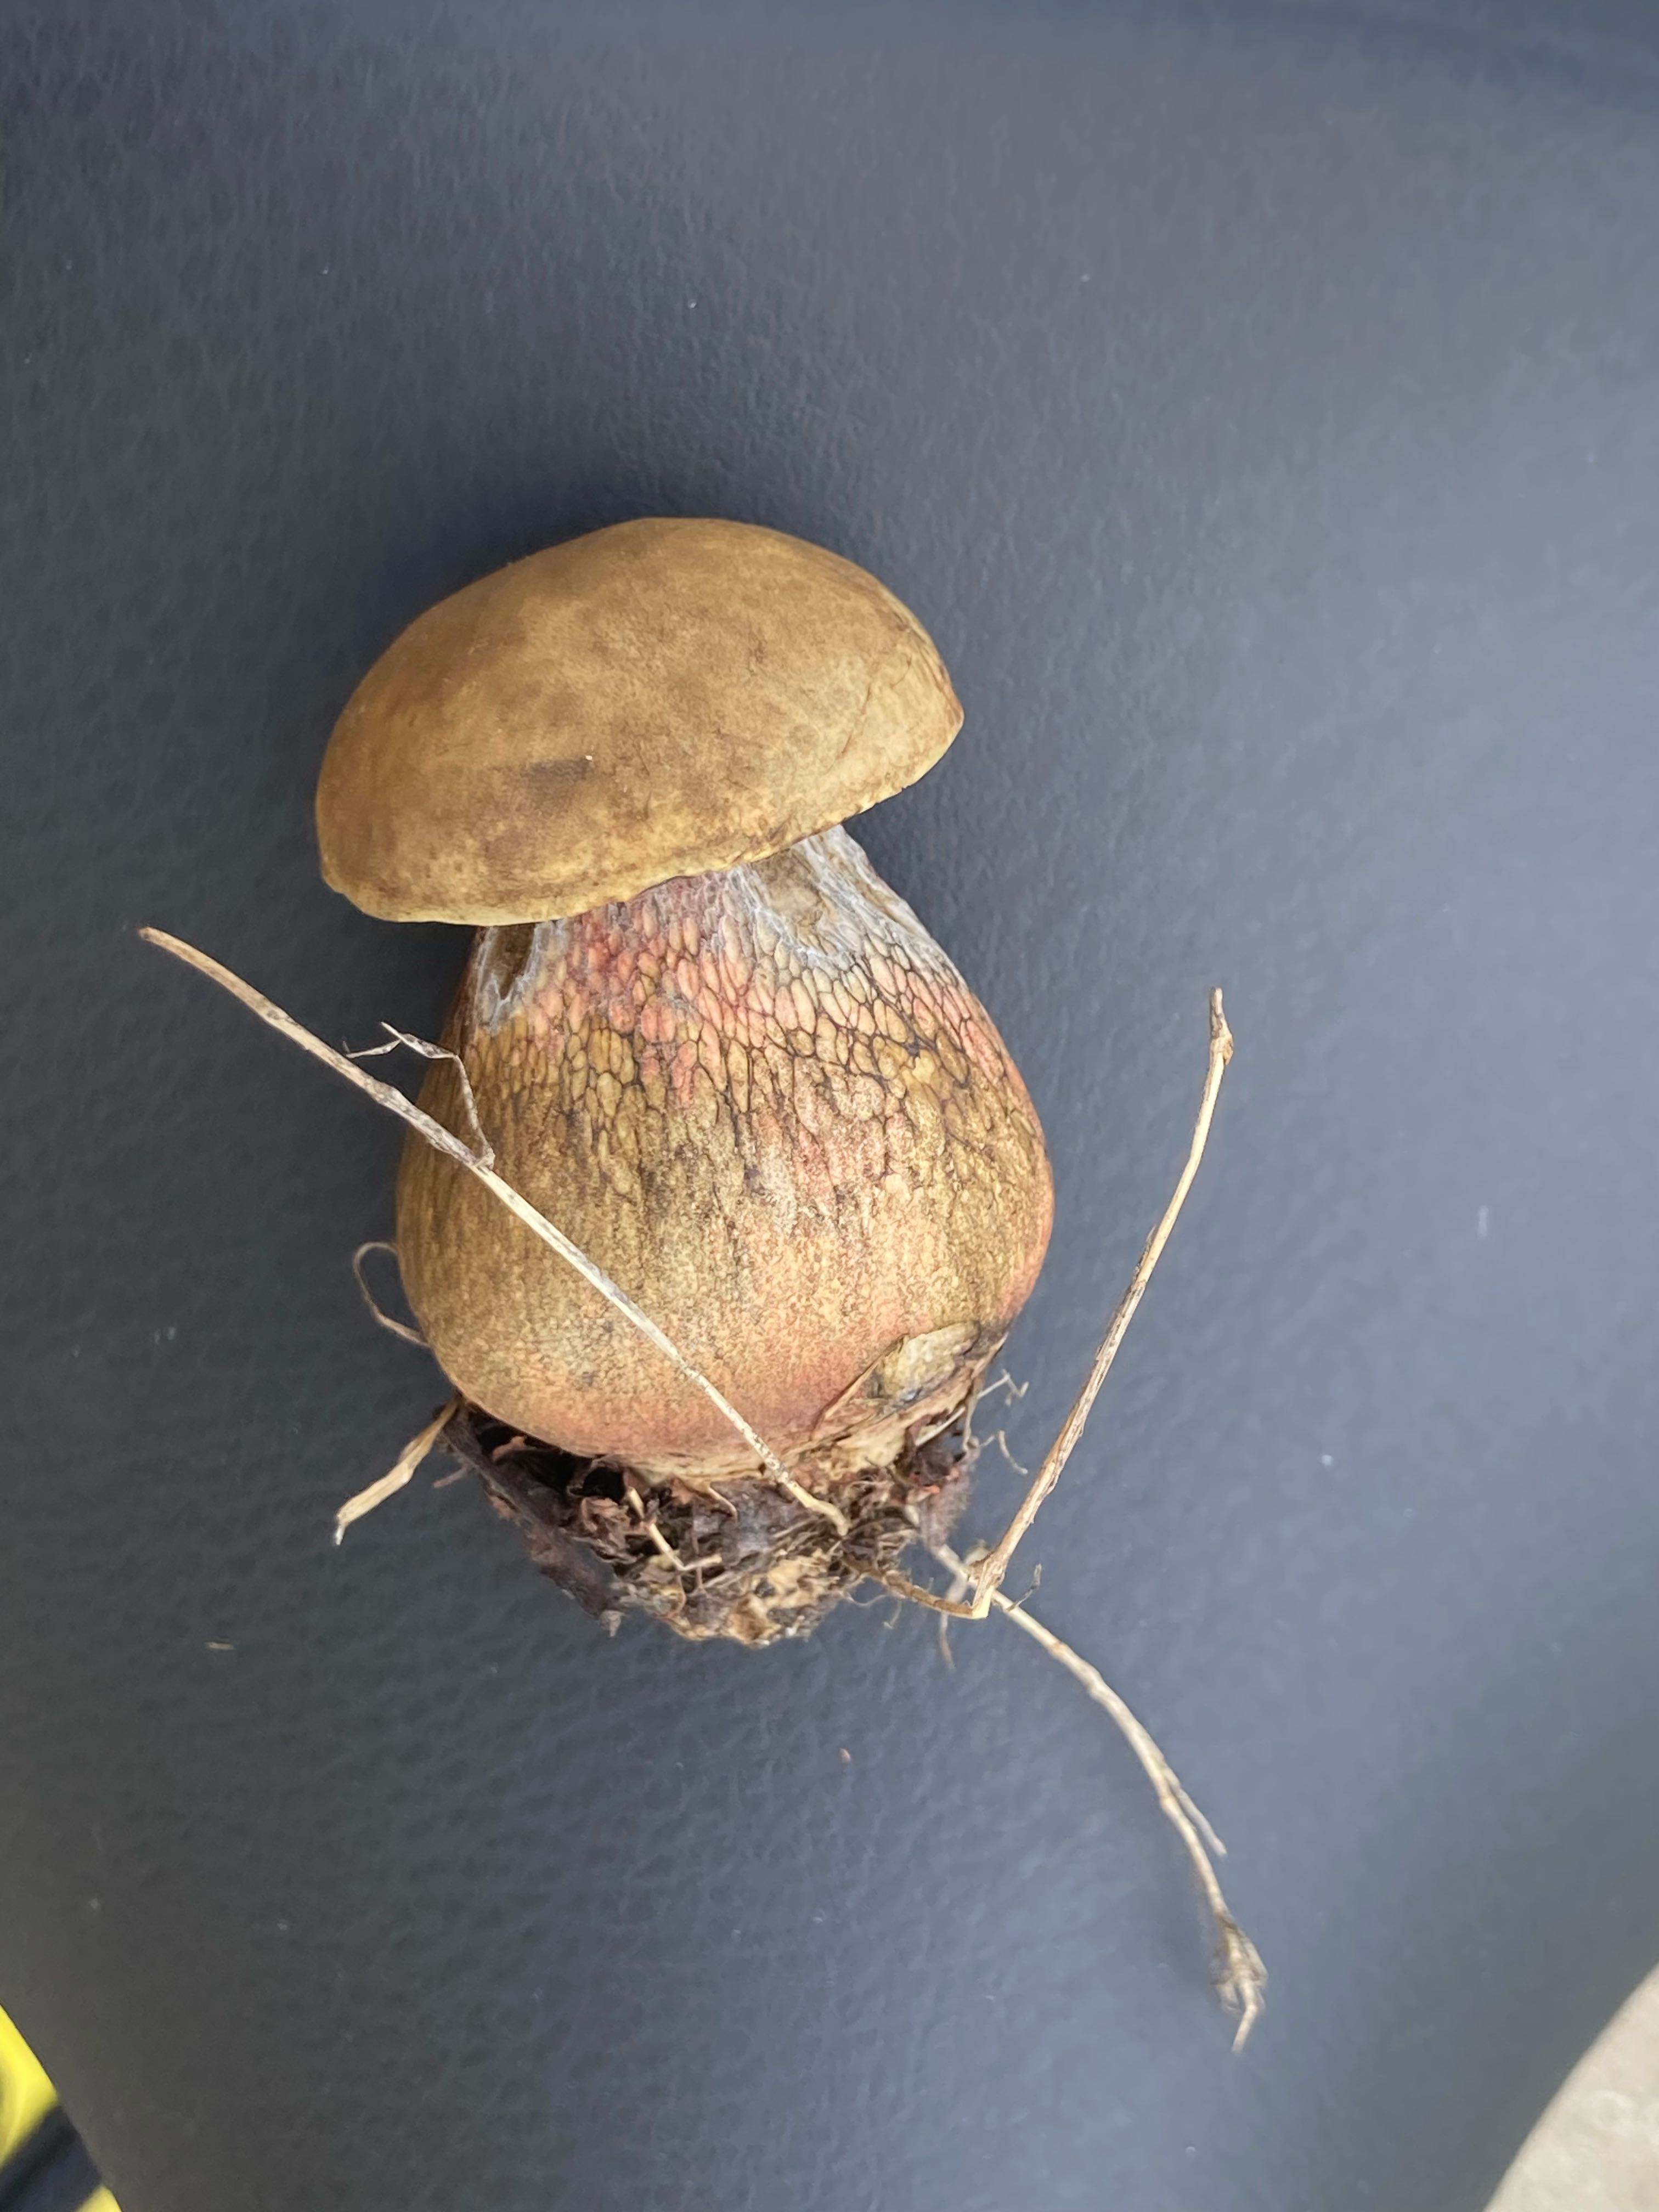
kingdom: Fungi
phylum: Basidiomycota
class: Agaricomycetes
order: Boletales
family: Boletaceae
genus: Suillellus
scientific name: Suillellus luridus
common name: netstokket indigorørhat
